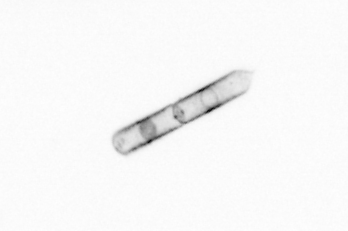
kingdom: Chromista
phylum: Ochrophyta
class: Bacillariophyceae
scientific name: Bacillariophyceae
